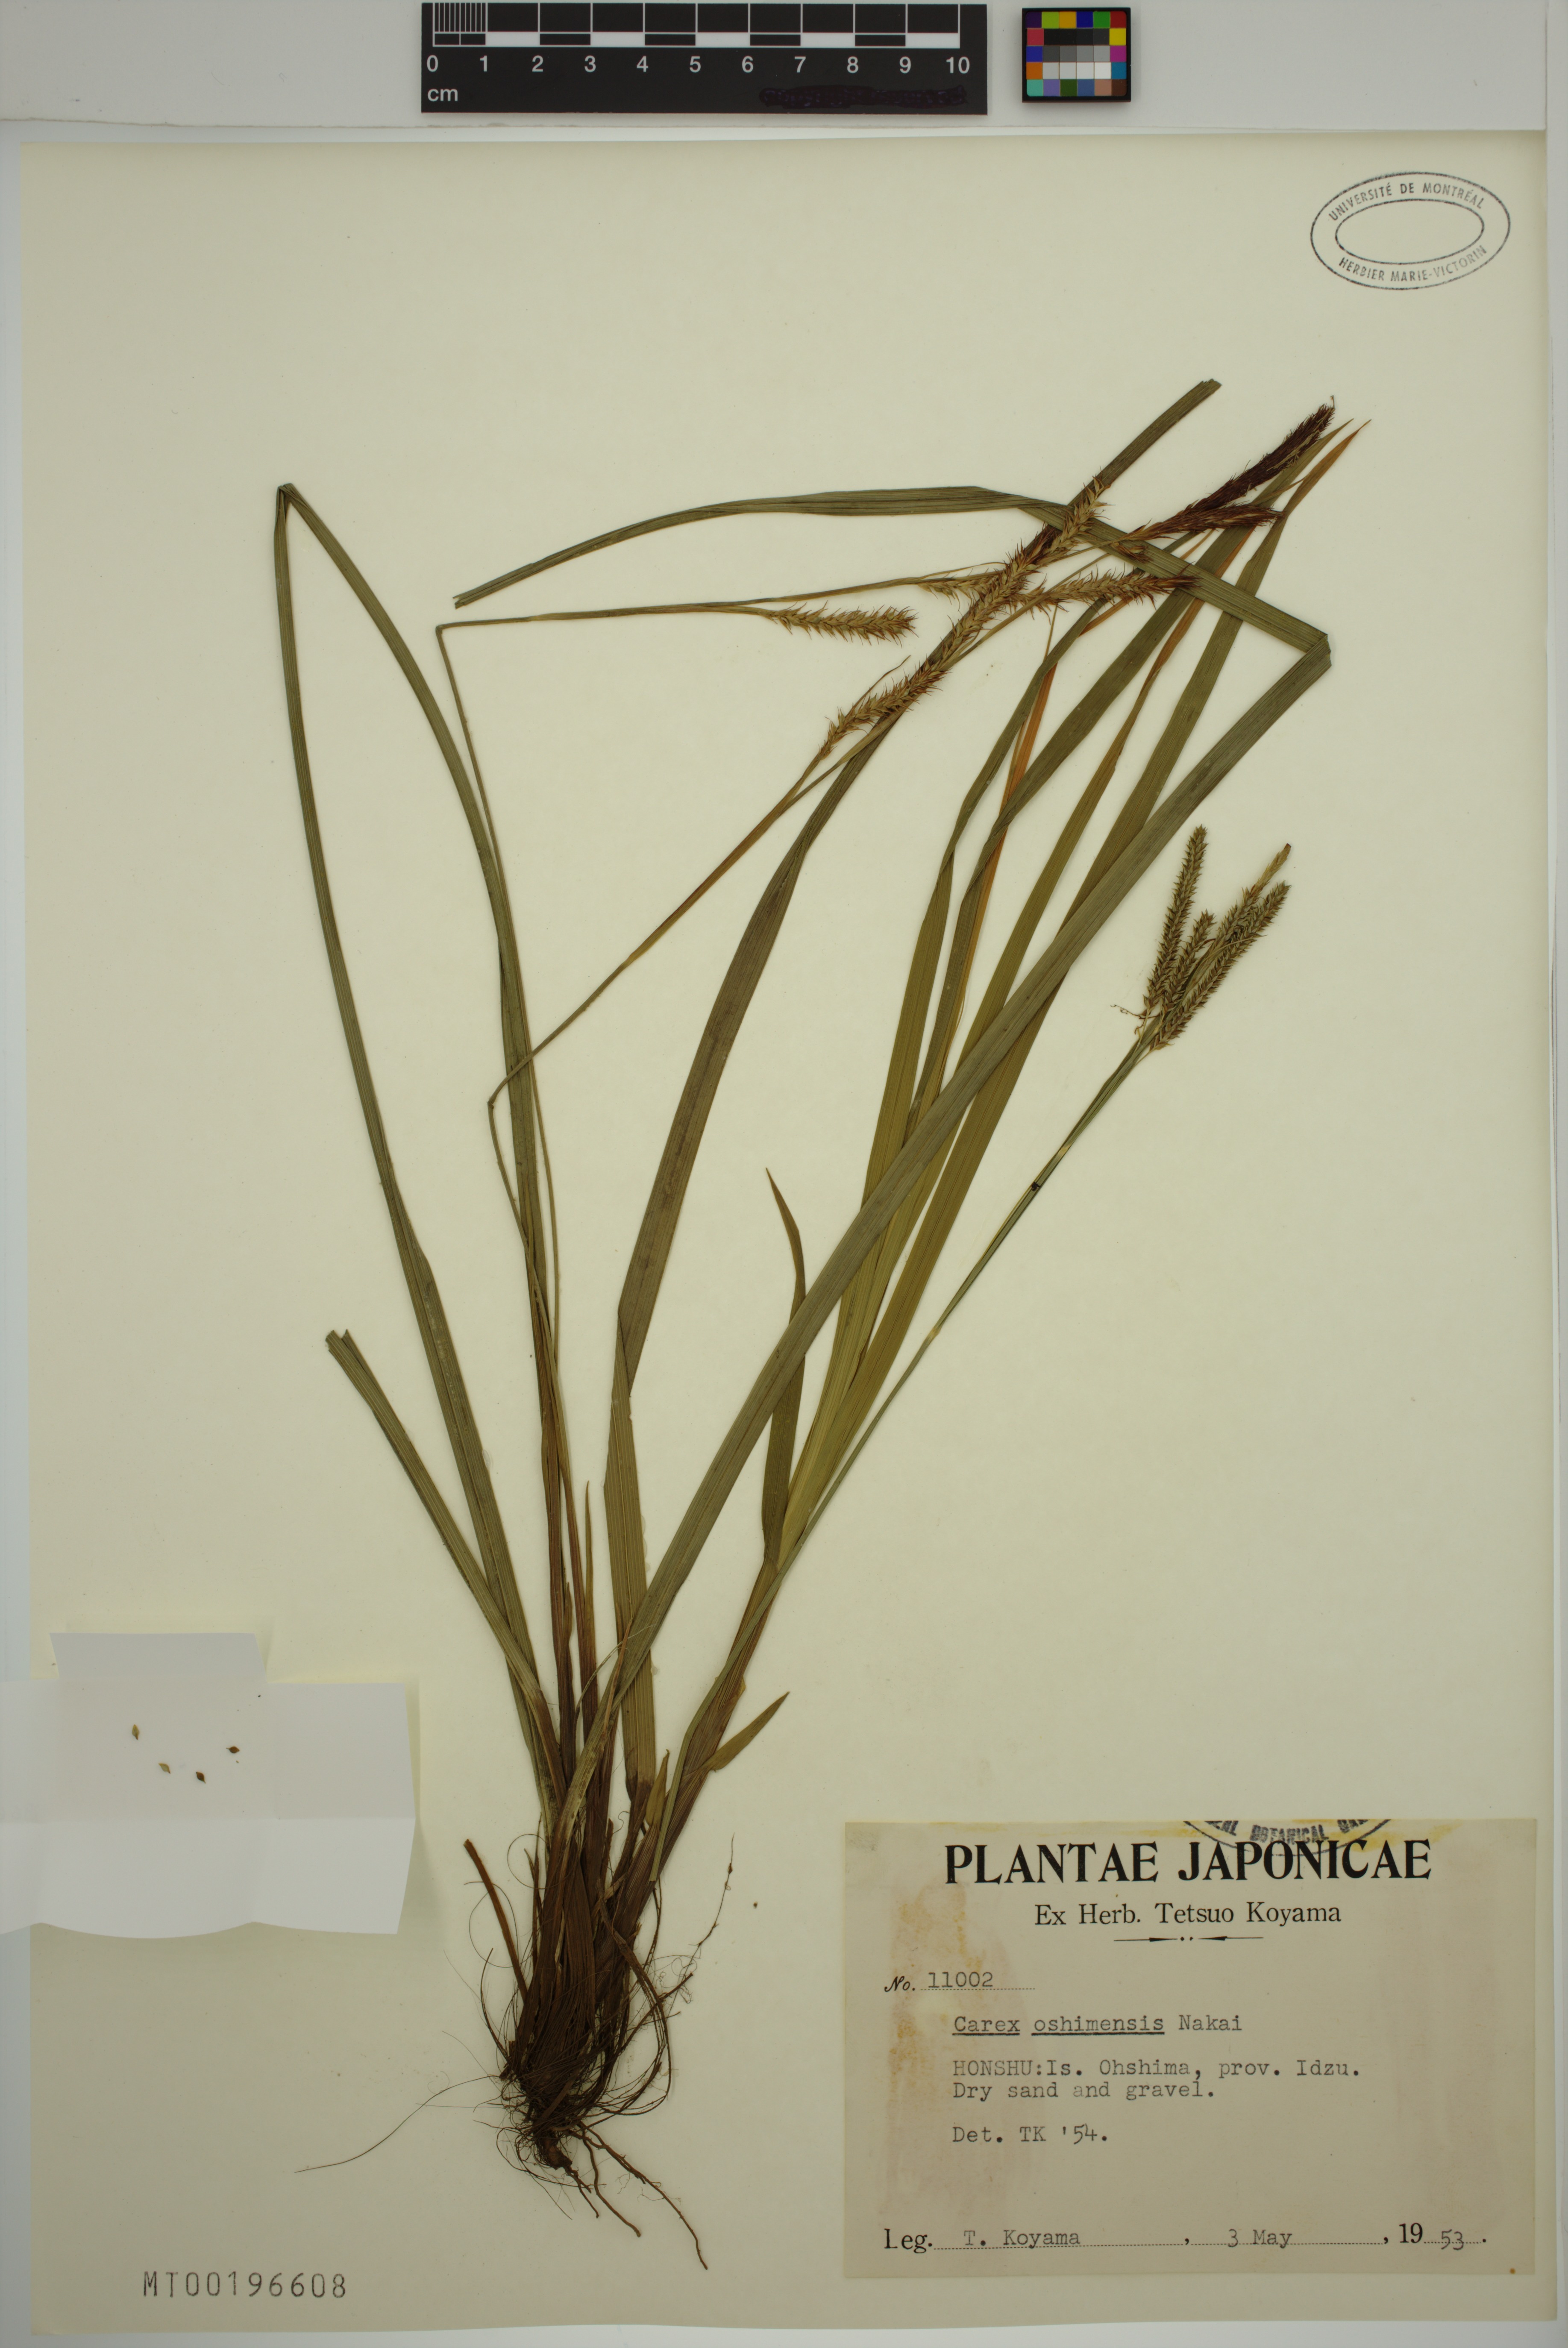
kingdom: Plantae
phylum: Tracheophyta
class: Liliopsida
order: Poales
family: Cyperaceae
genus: Carex
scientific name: Carex oshimensis
